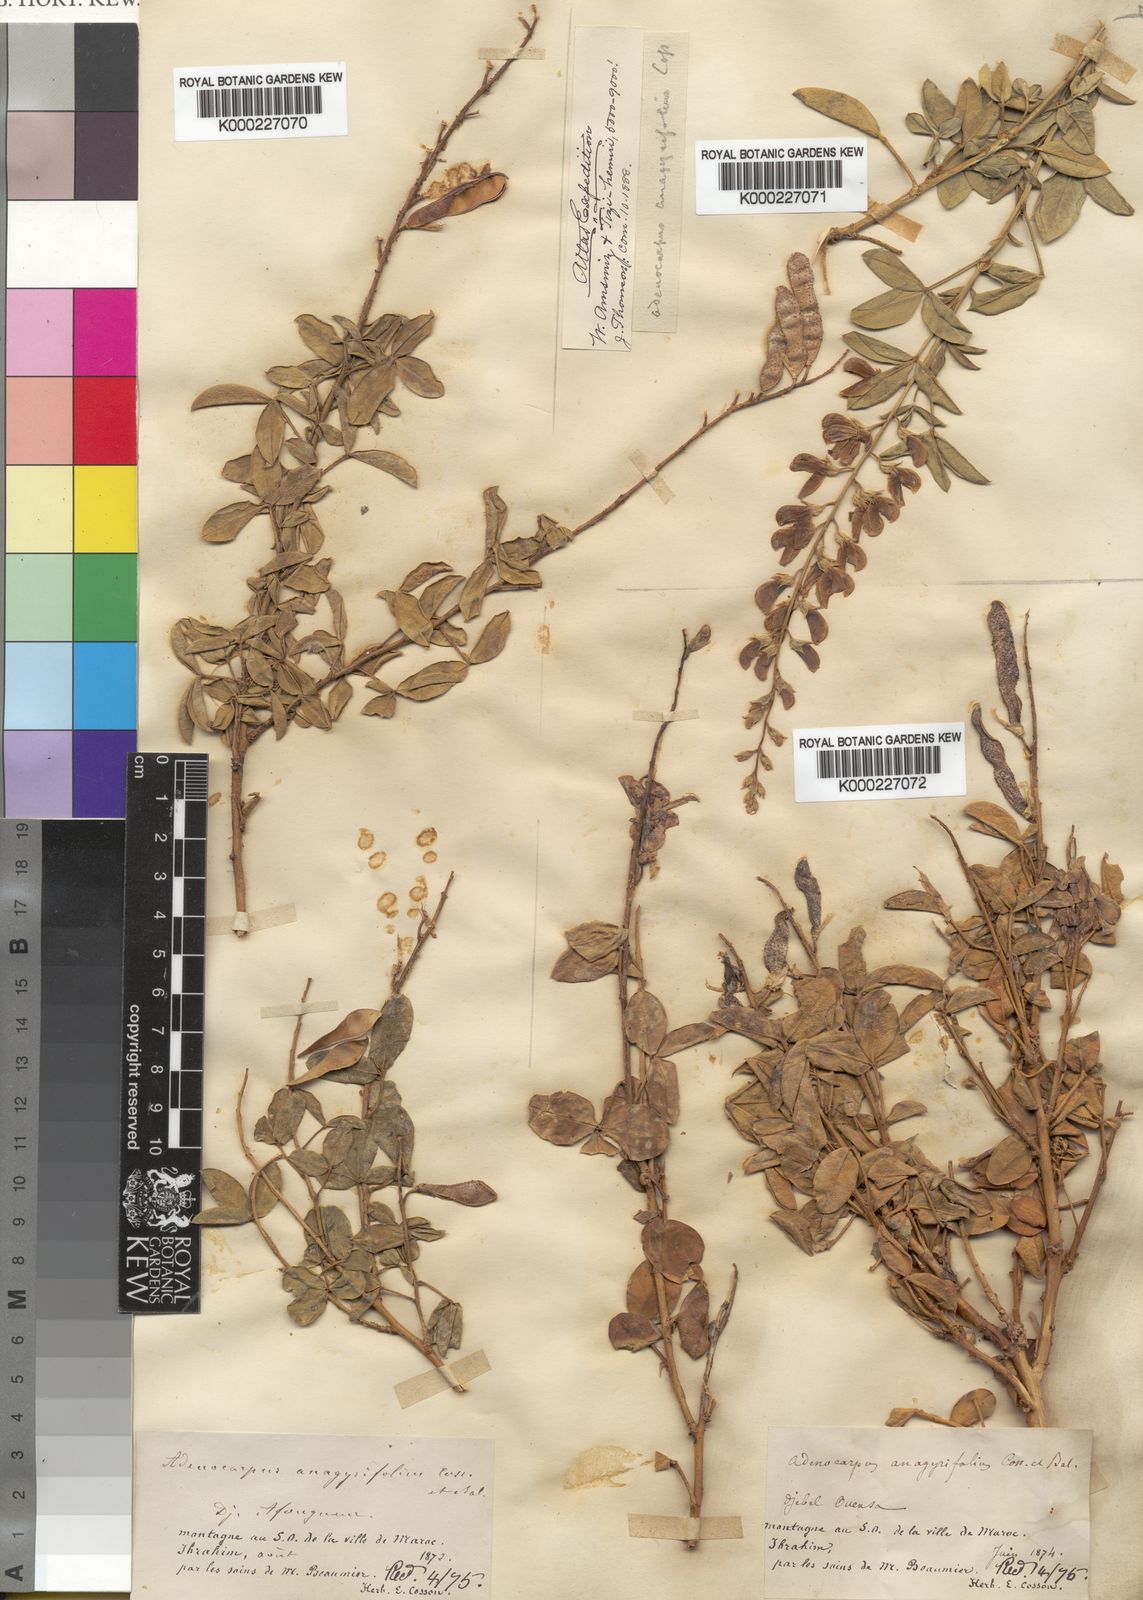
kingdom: Plantae
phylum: Tracheophyta
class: Magnoliopsida
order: Fabales
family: Fabaceae
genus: Adenocarpus
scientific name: Adenocarpus anagyrifolius
